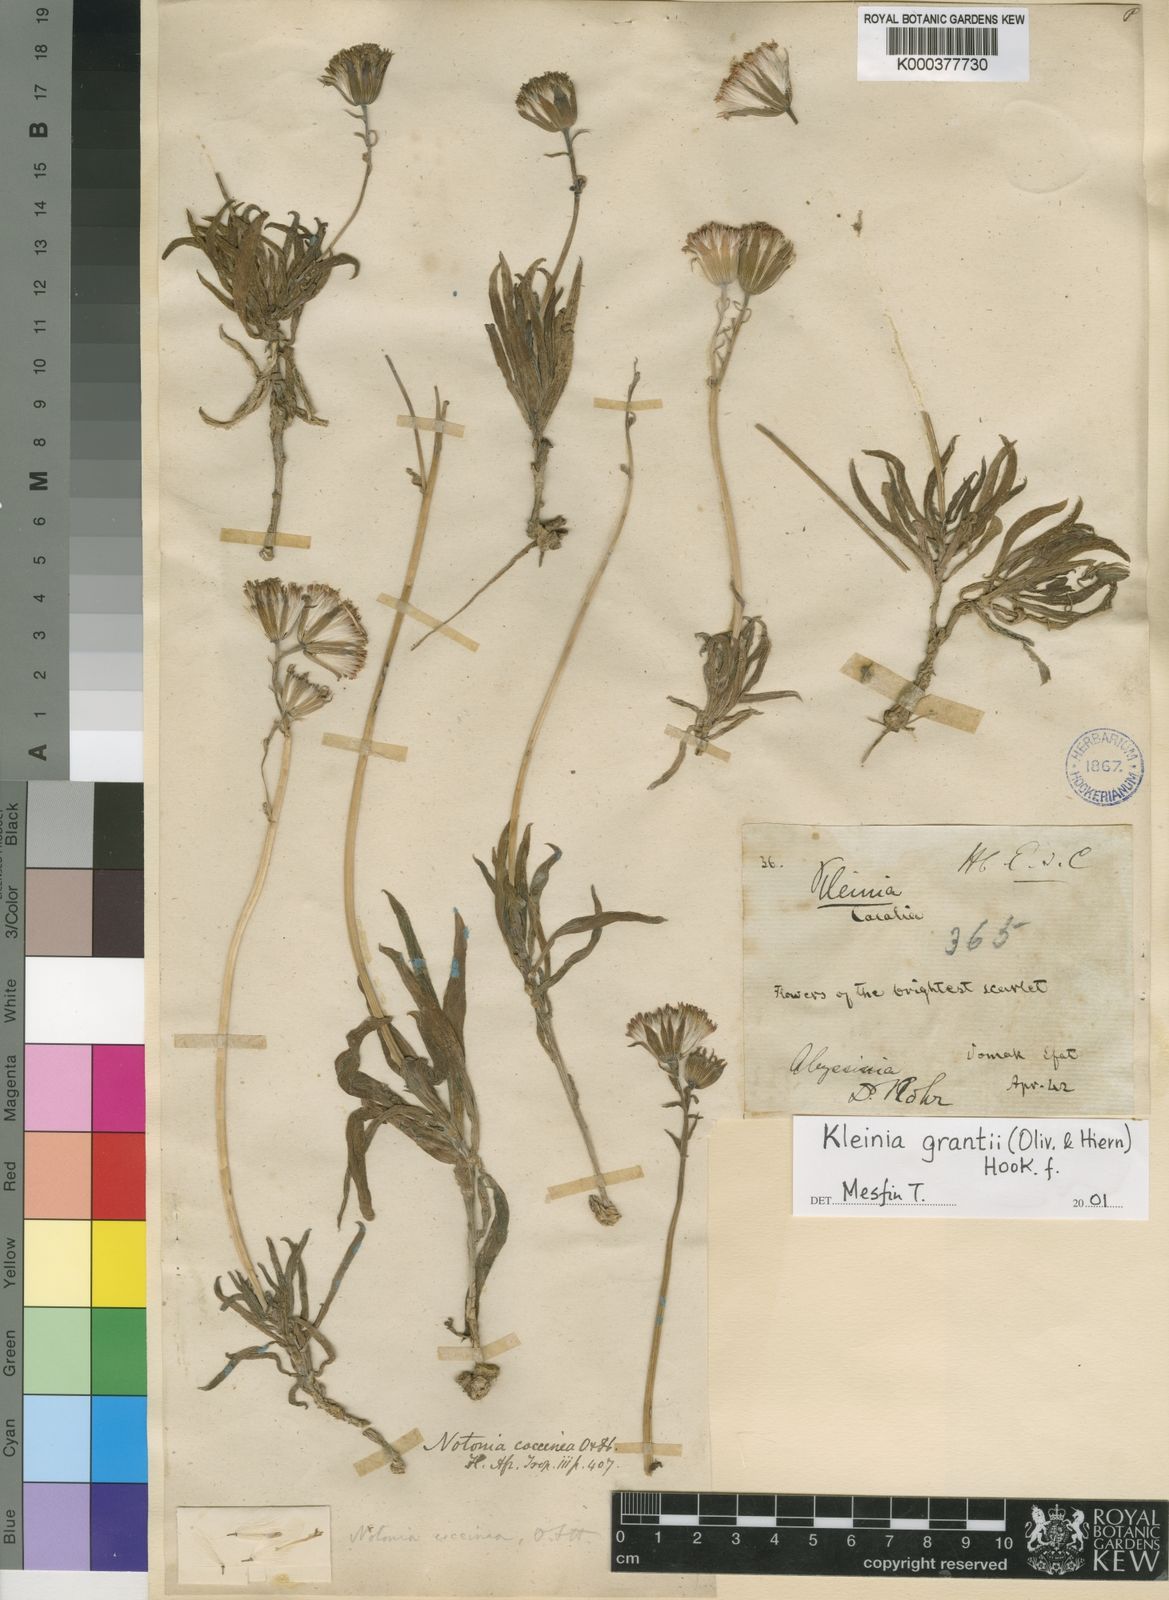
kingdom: Plantae
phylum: Tracheophyta
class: Magnoliopsida
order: Asterales
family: Asteraceae
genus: Kleinia
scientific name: Kleinia grantii
